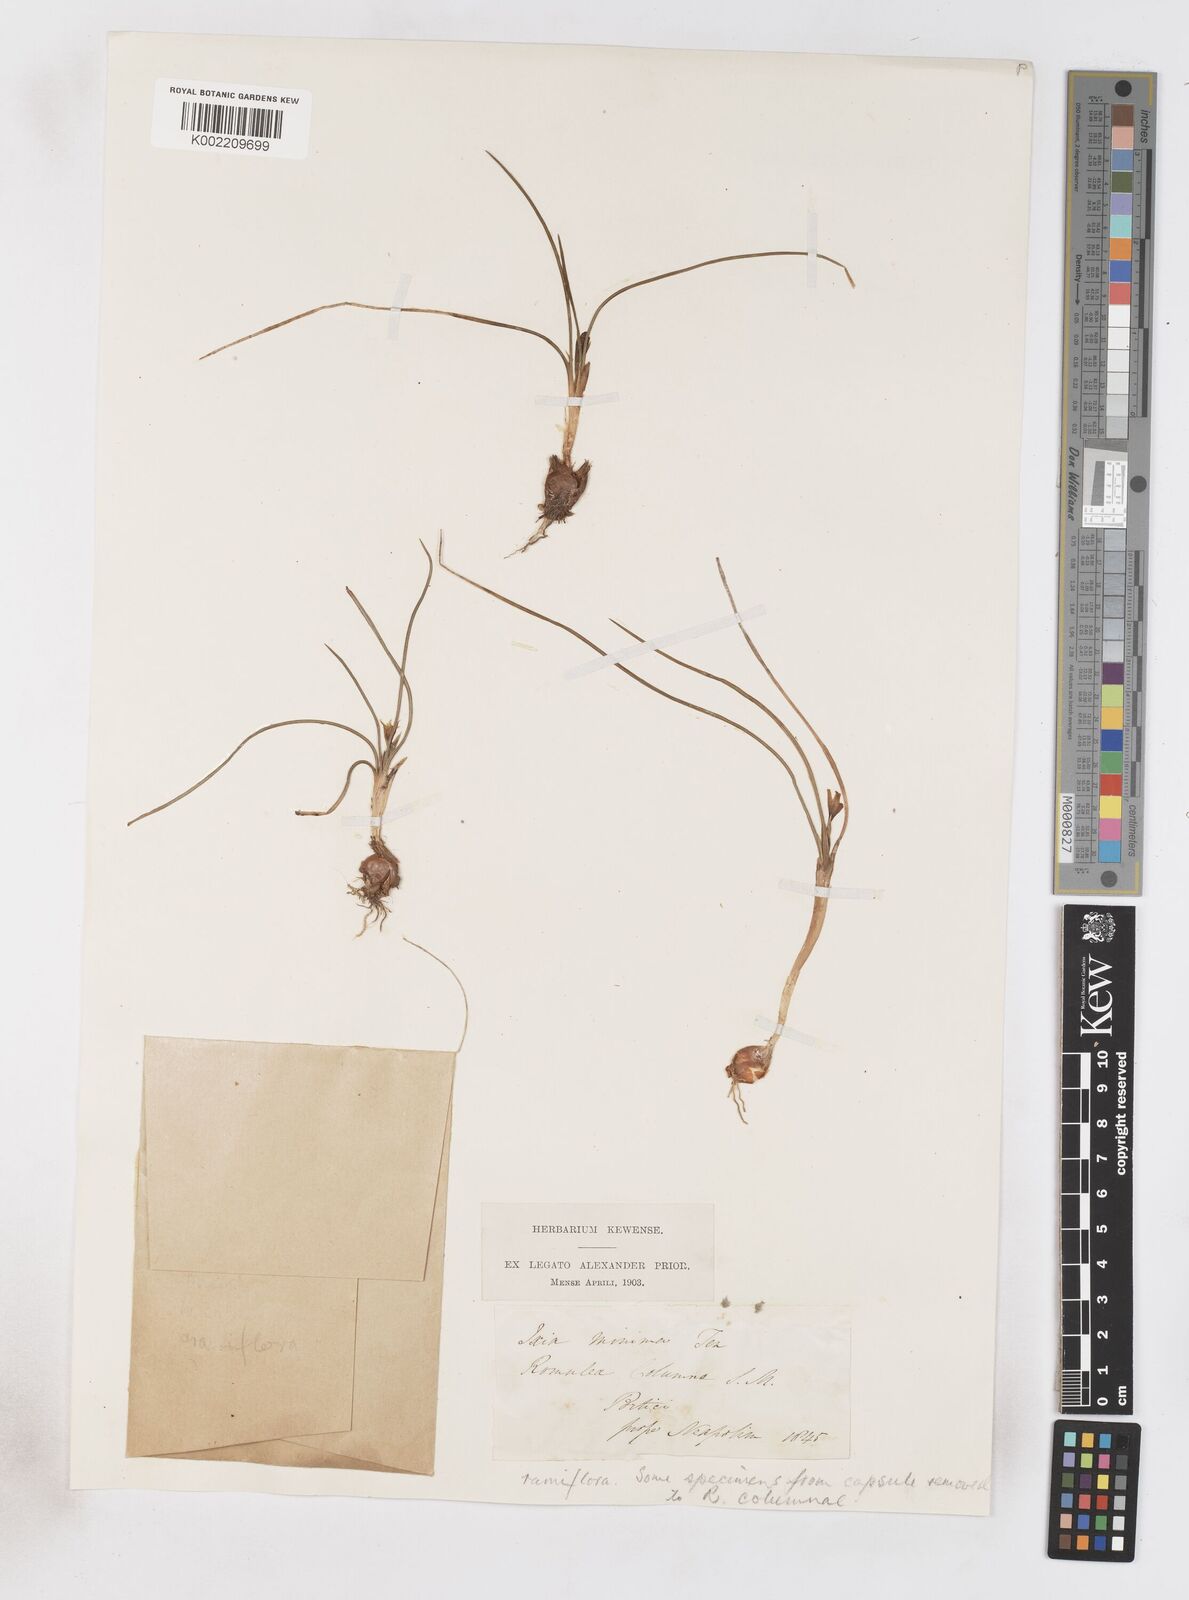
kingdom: Plantae
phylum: Tracheophyta
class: Liliopsida
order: Asparagales
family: Iridaceae
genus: Romulea
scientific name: Romulea ramiflora
